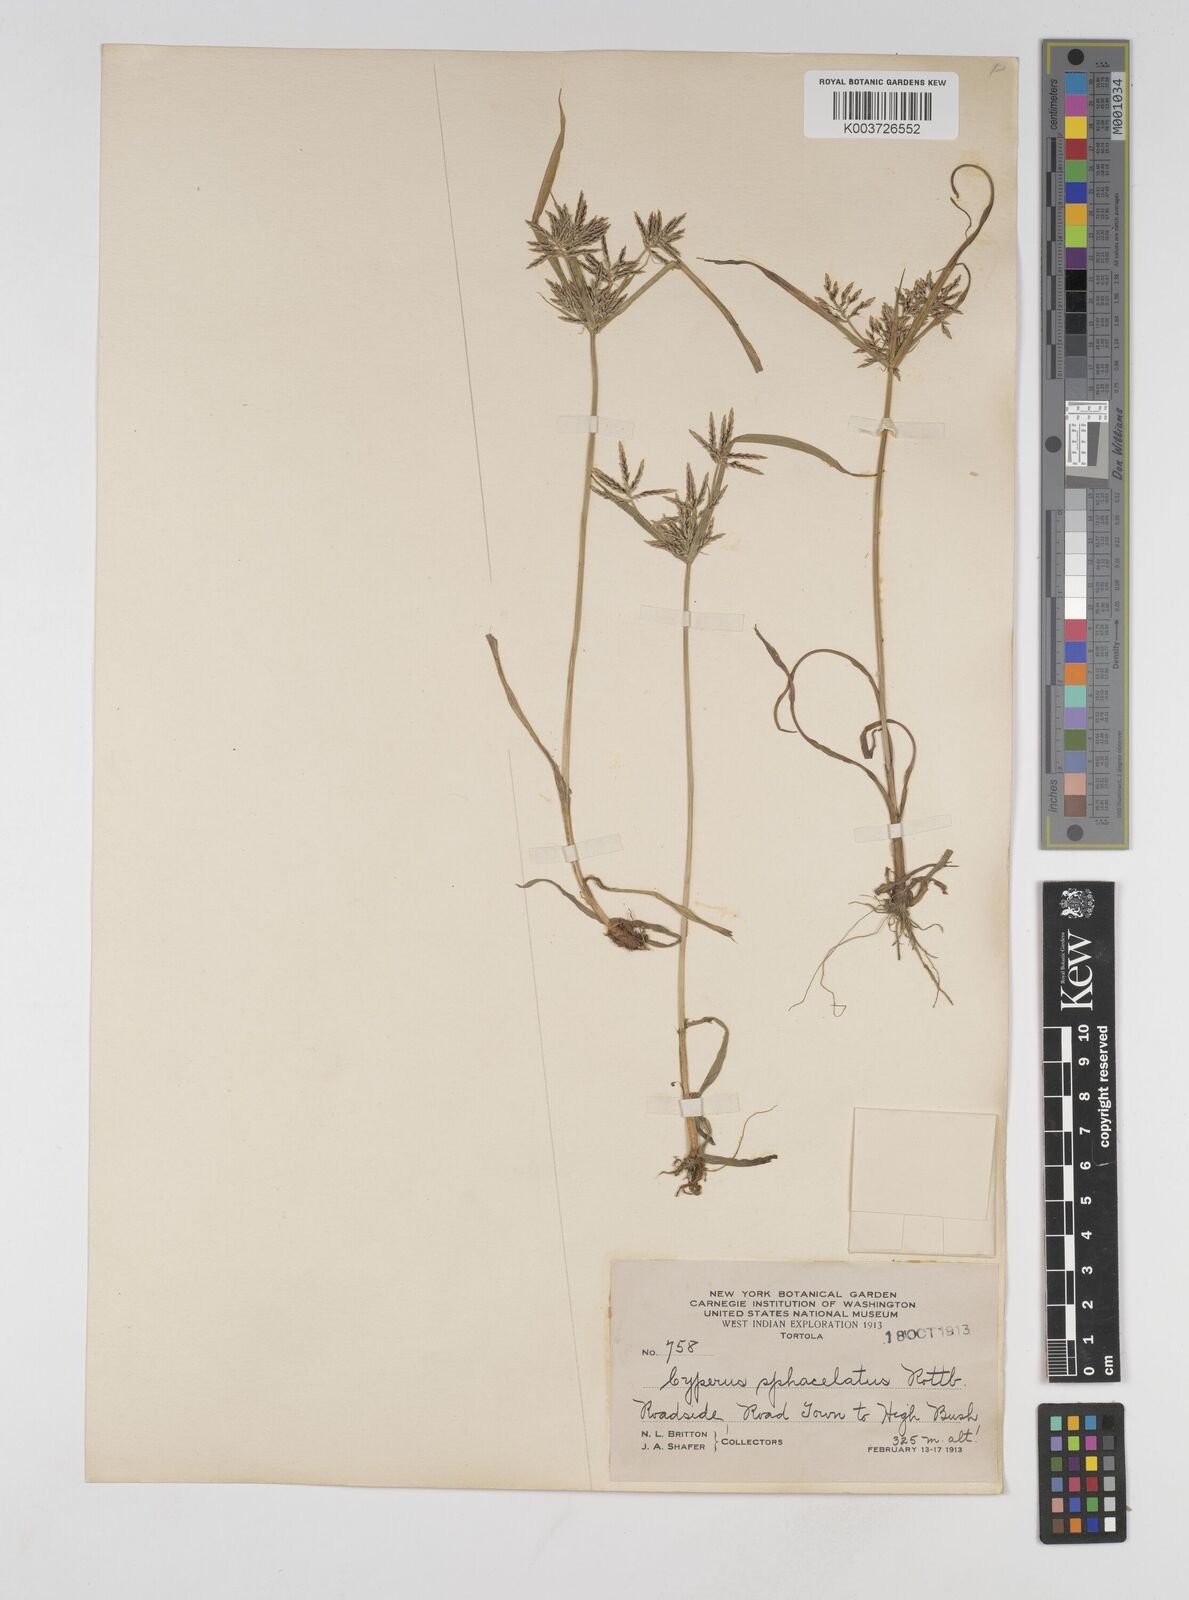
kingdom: Plantae
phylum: Tracheophyta
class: Liliopsida
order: Poales
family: Cyperaceae
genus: Cyperus
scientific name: Cyperus sphacelatus
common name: Roadside flatsedge
